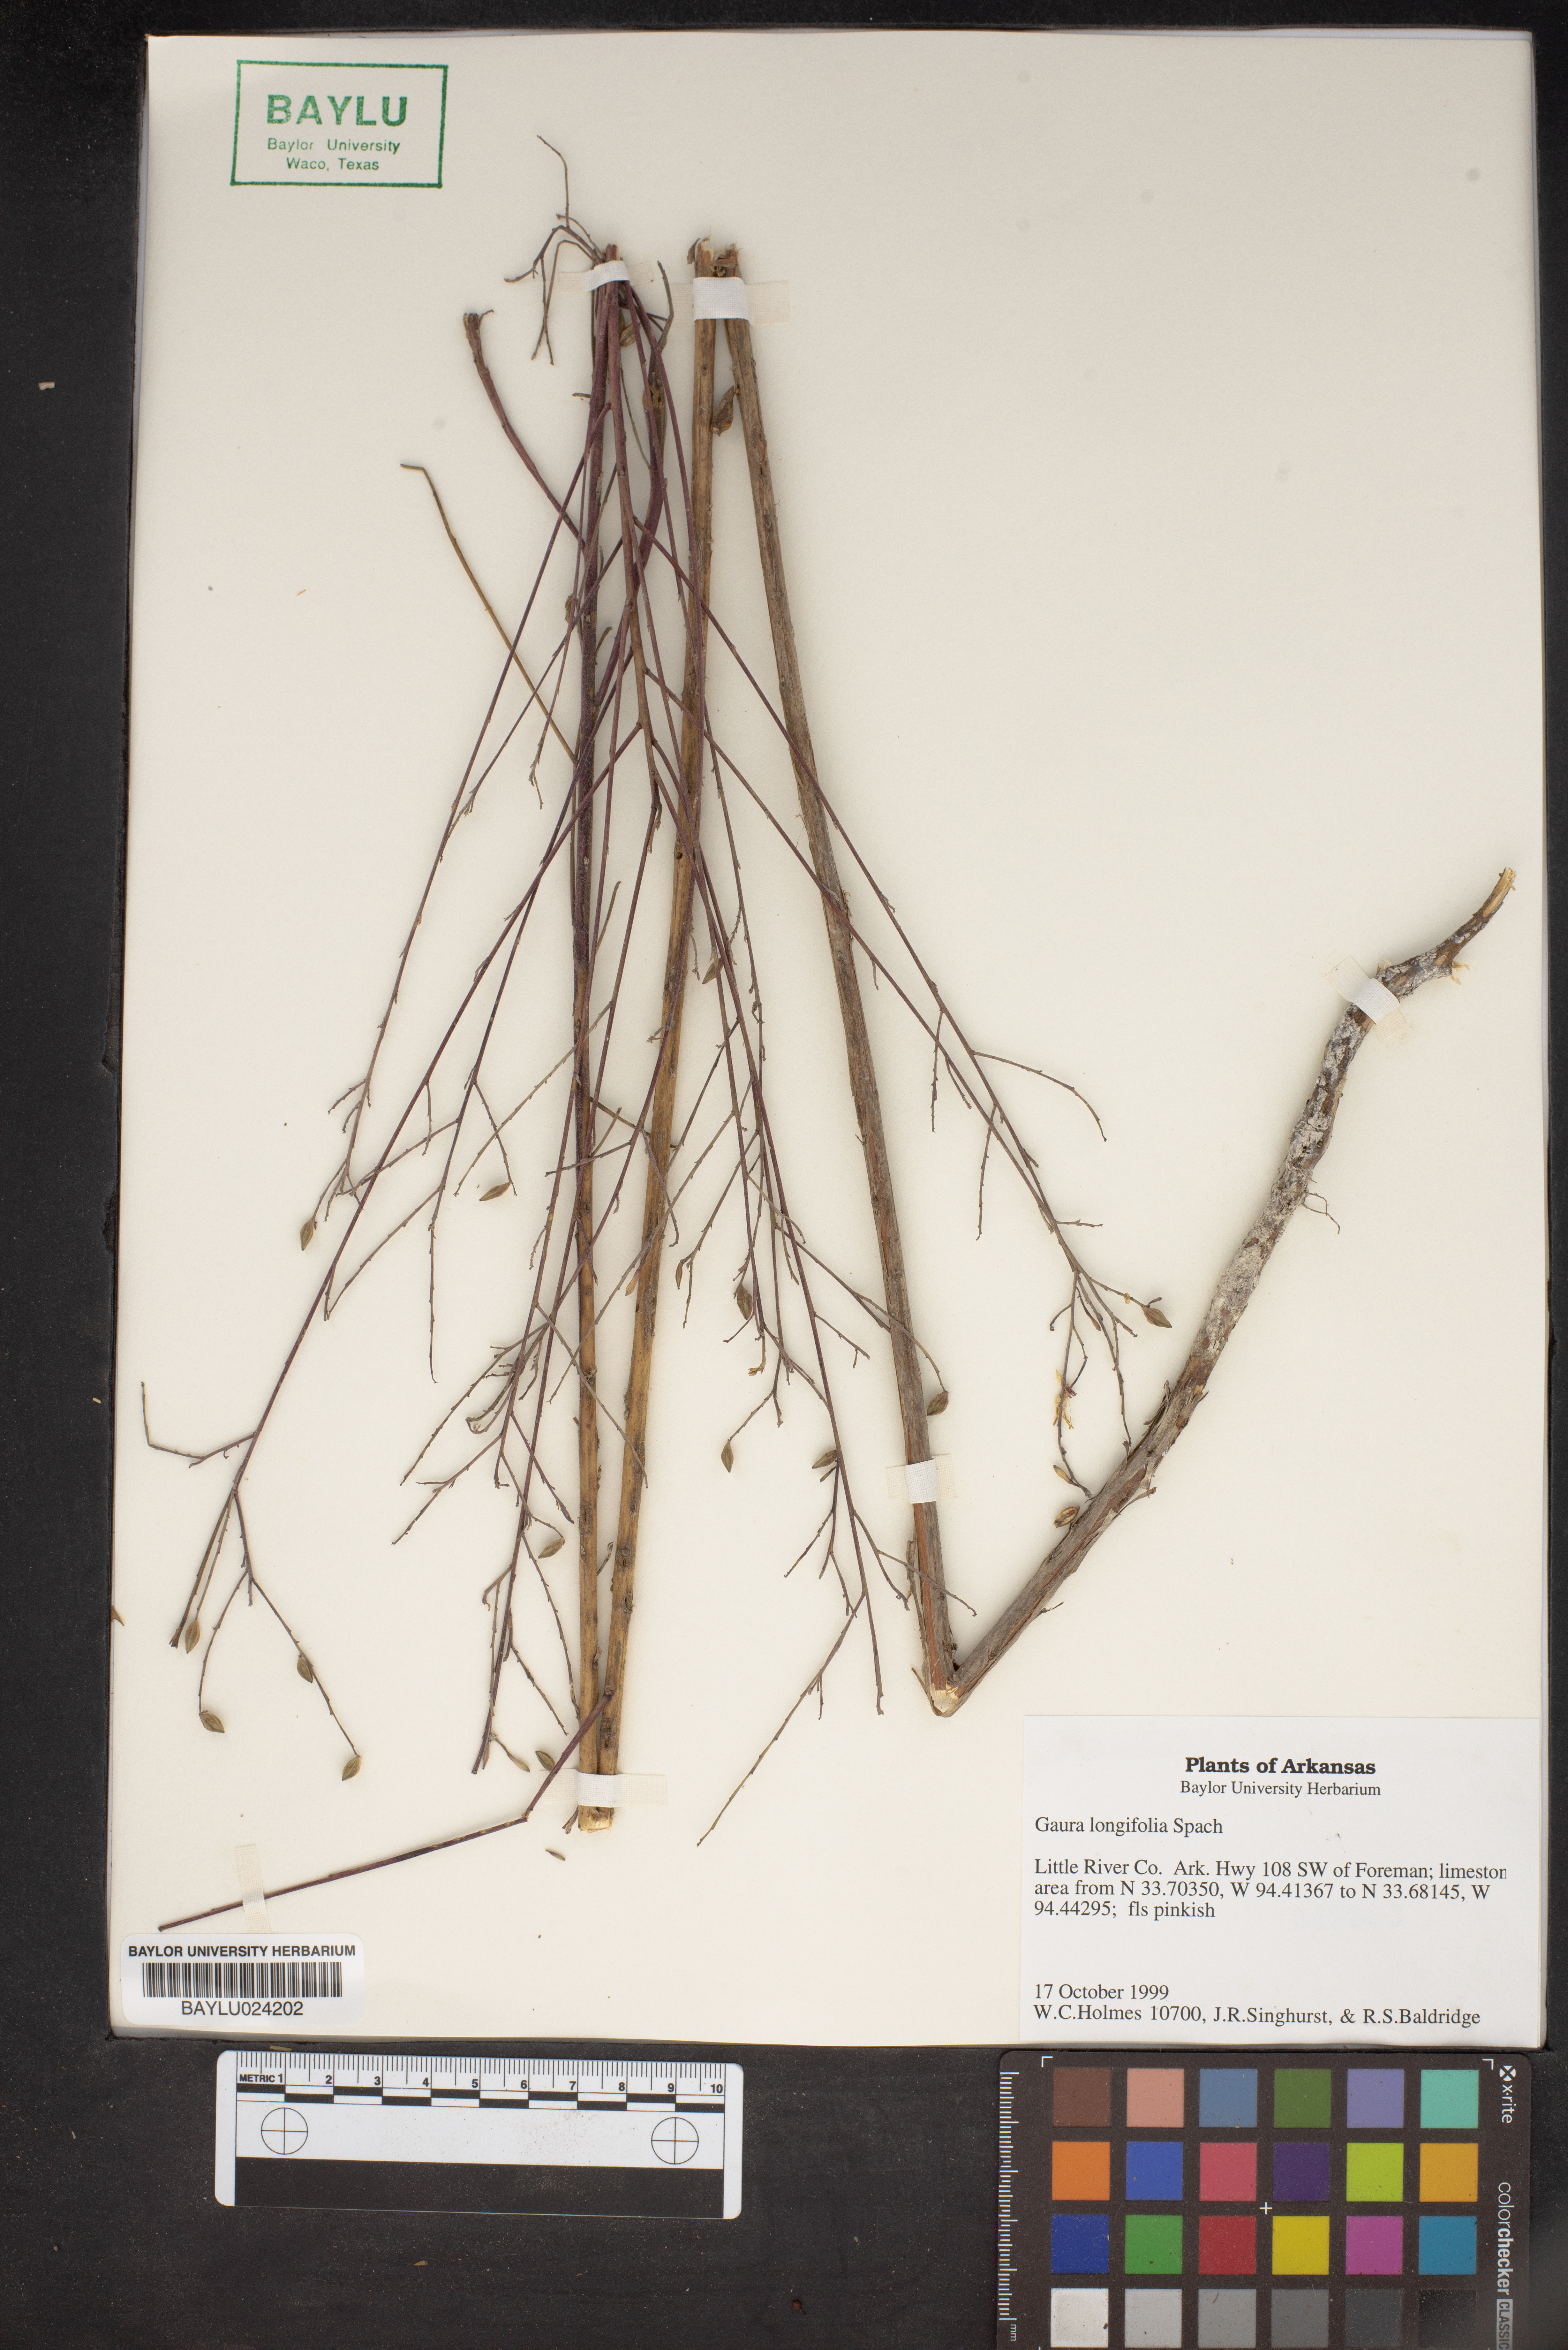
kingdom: Plantae
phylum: Tracheophyta
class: Magnoliopsida
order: Myrtales
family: Onagraceae
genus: Oenothera
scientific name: Oenothera filiformis
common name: Longflower beeblossom
